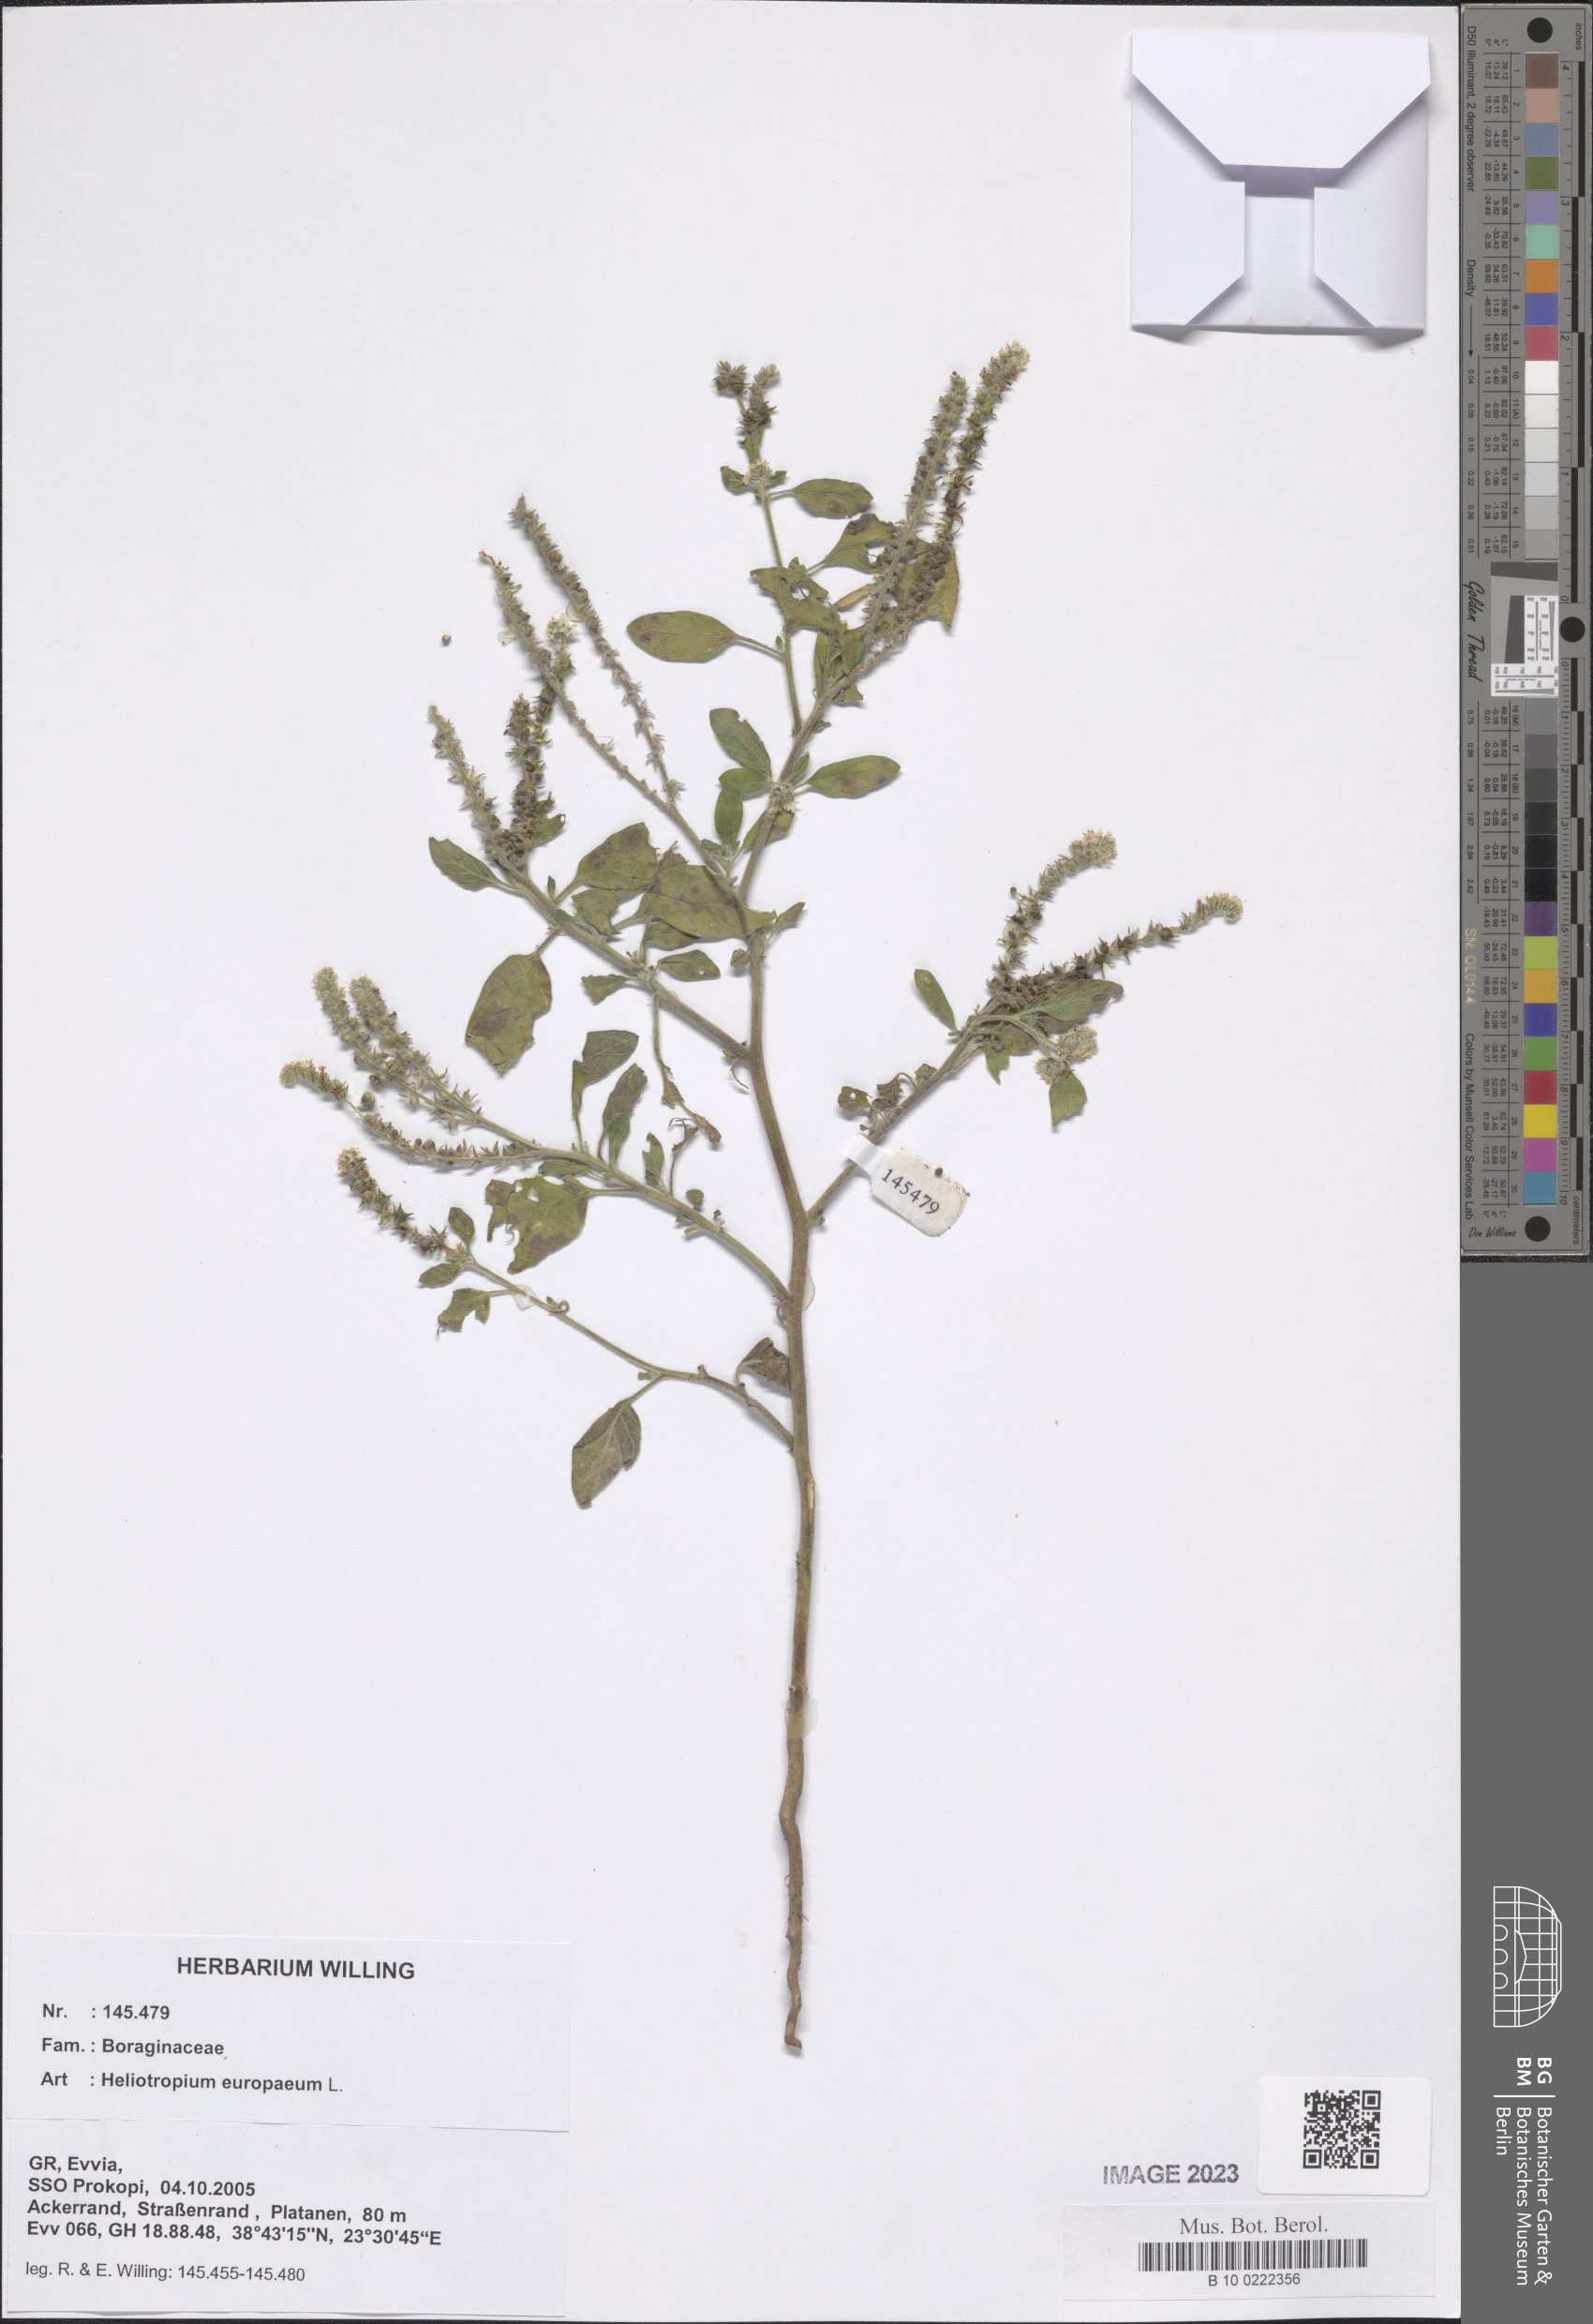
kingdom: Plantae
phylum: Tracheophyta
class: Magnoliopsida
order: Boraginales
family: Heliotropiaceae
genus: Heliotropium
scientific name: Heliotropium europaeum
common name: European heliotrope
